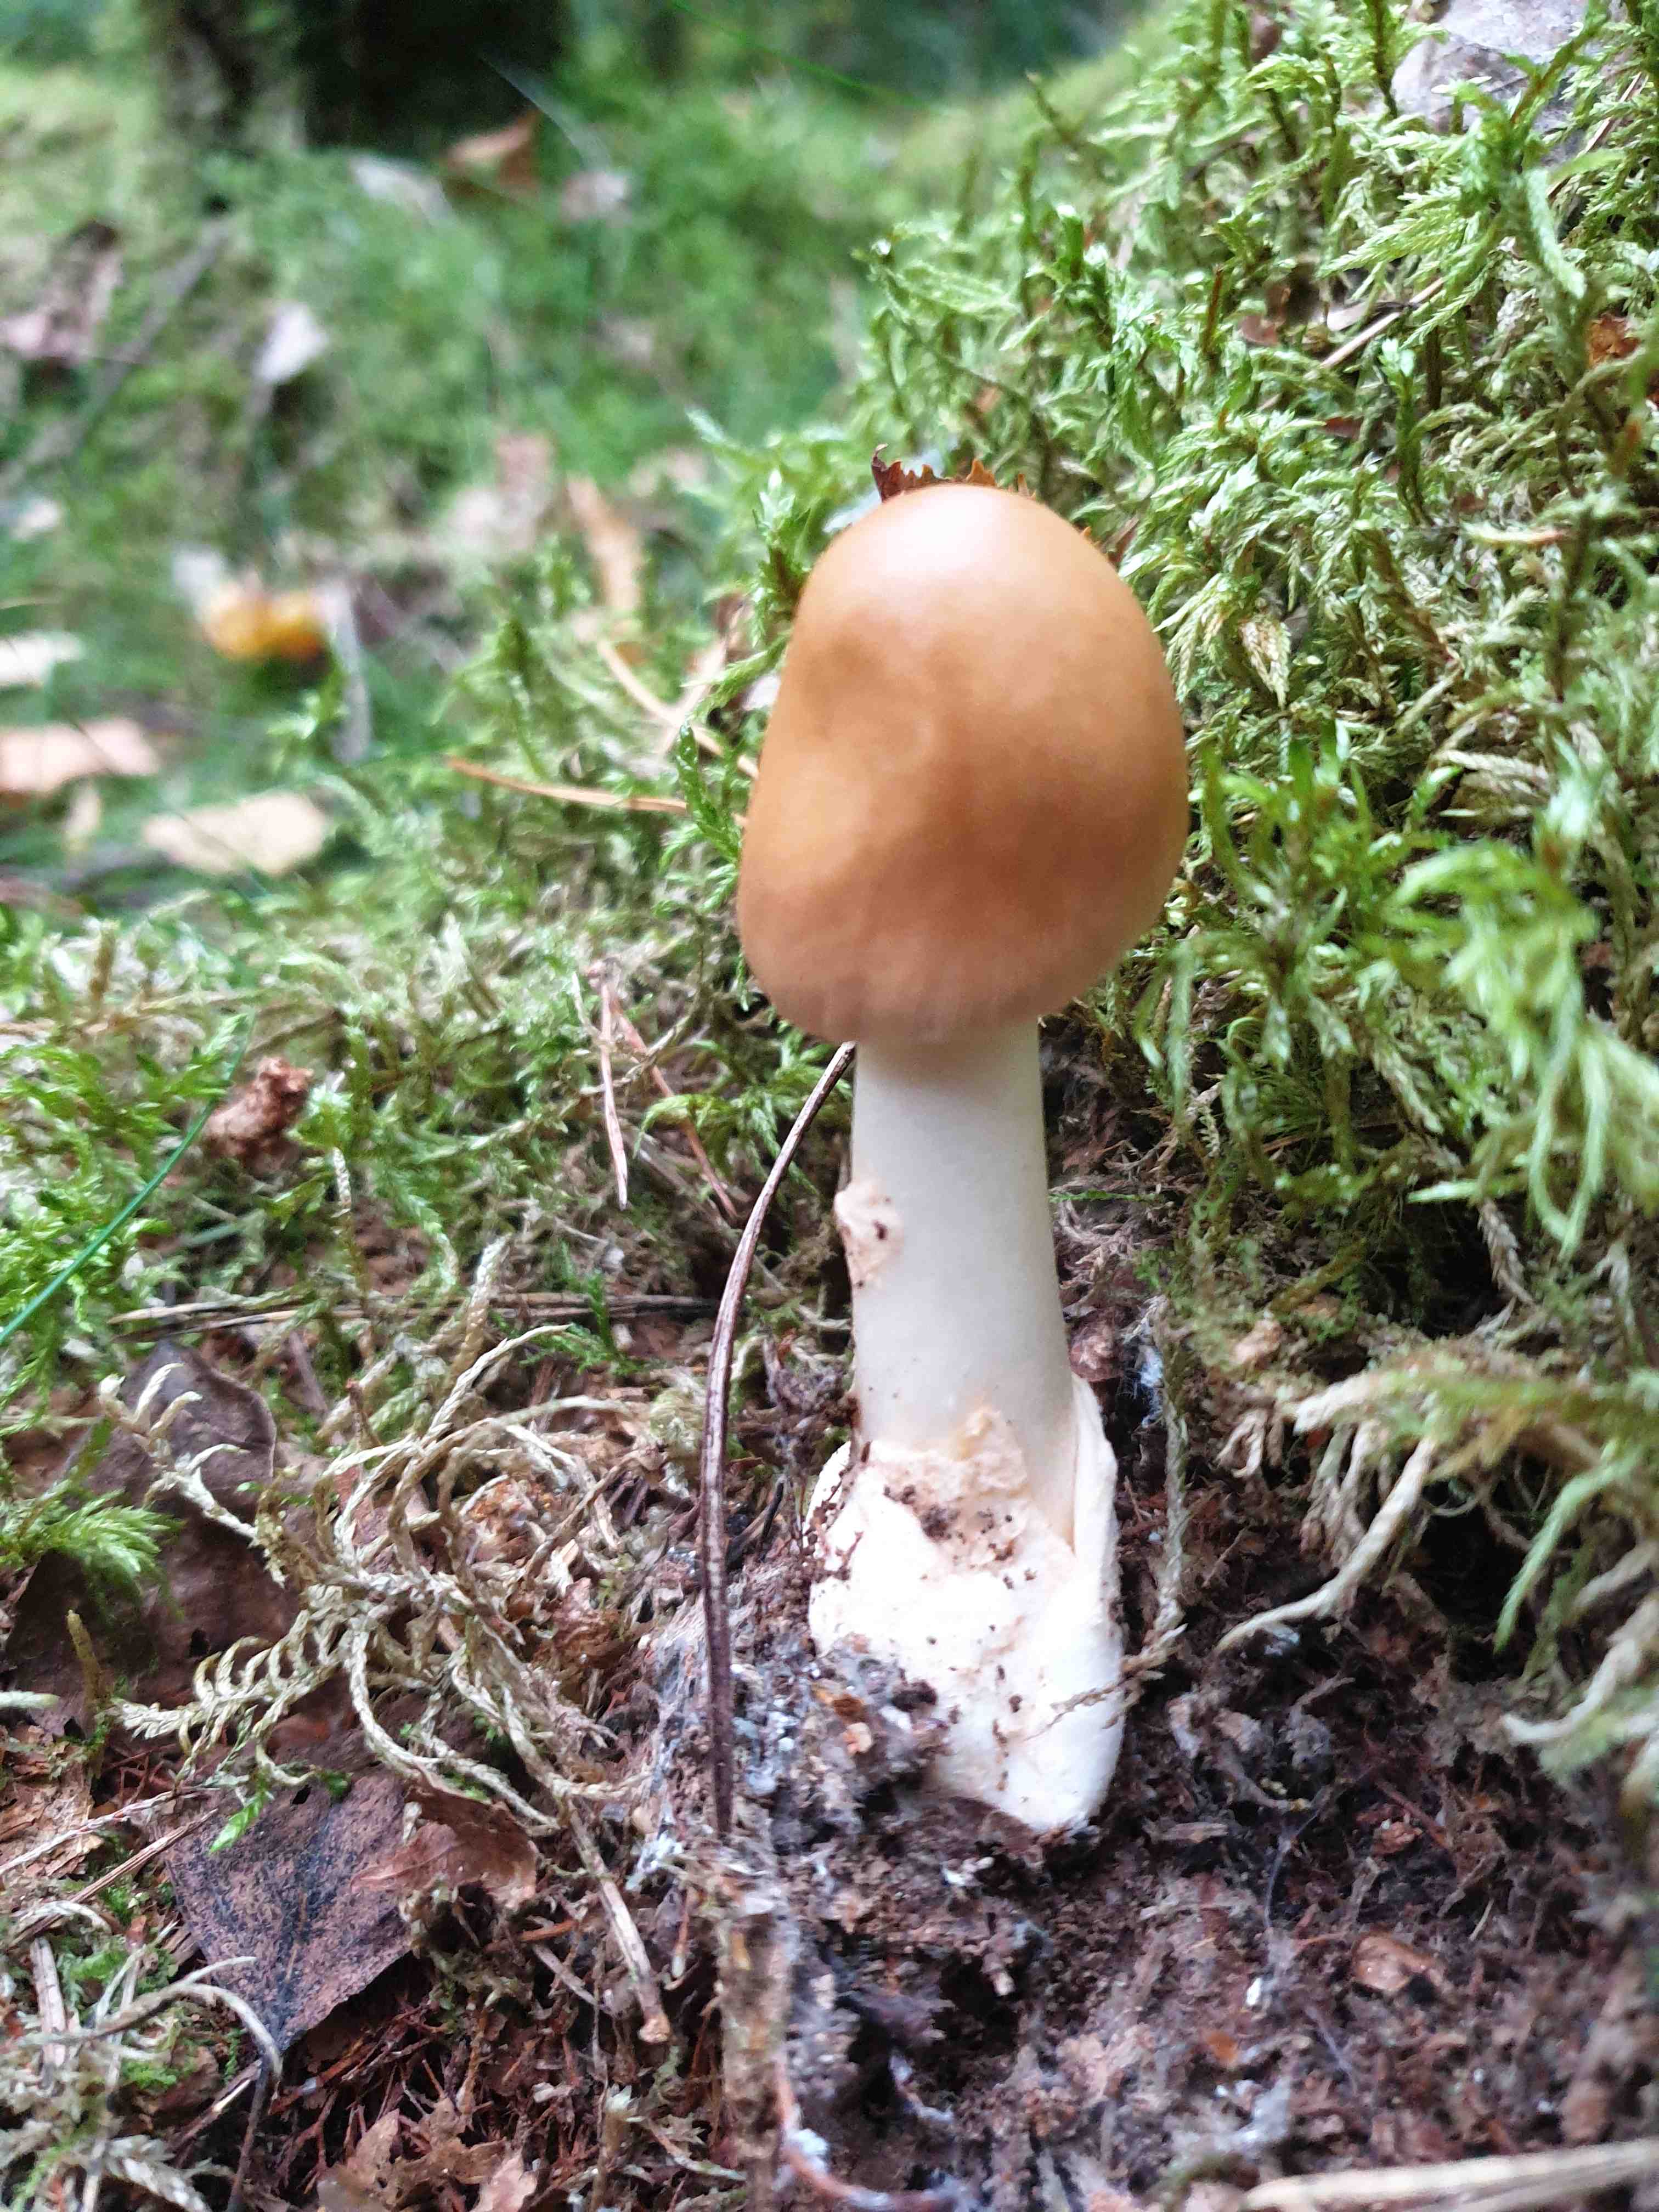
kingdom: Fungi
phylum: Basidiomycota
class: Agaricomycetes
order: Agaricales
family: Amanitaceae
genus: Amanita
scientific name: Amanita fulva
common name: brun kam-fluesvamp
